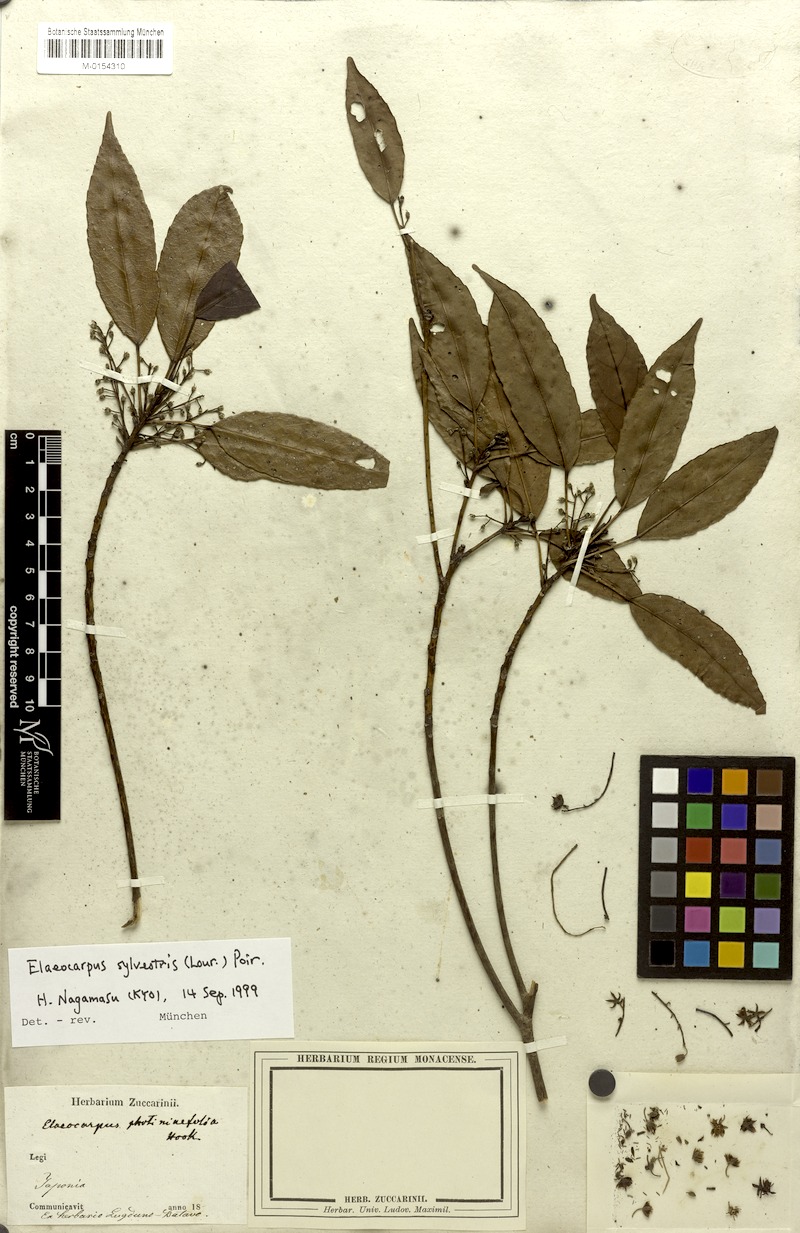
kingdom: Plantae
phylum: Tracheophyta
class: Magnoliopsida
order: Oxalidales
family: Elaeocarpaceae
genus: Elaeocarpus
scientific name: Elaeocarpus sylvestris
